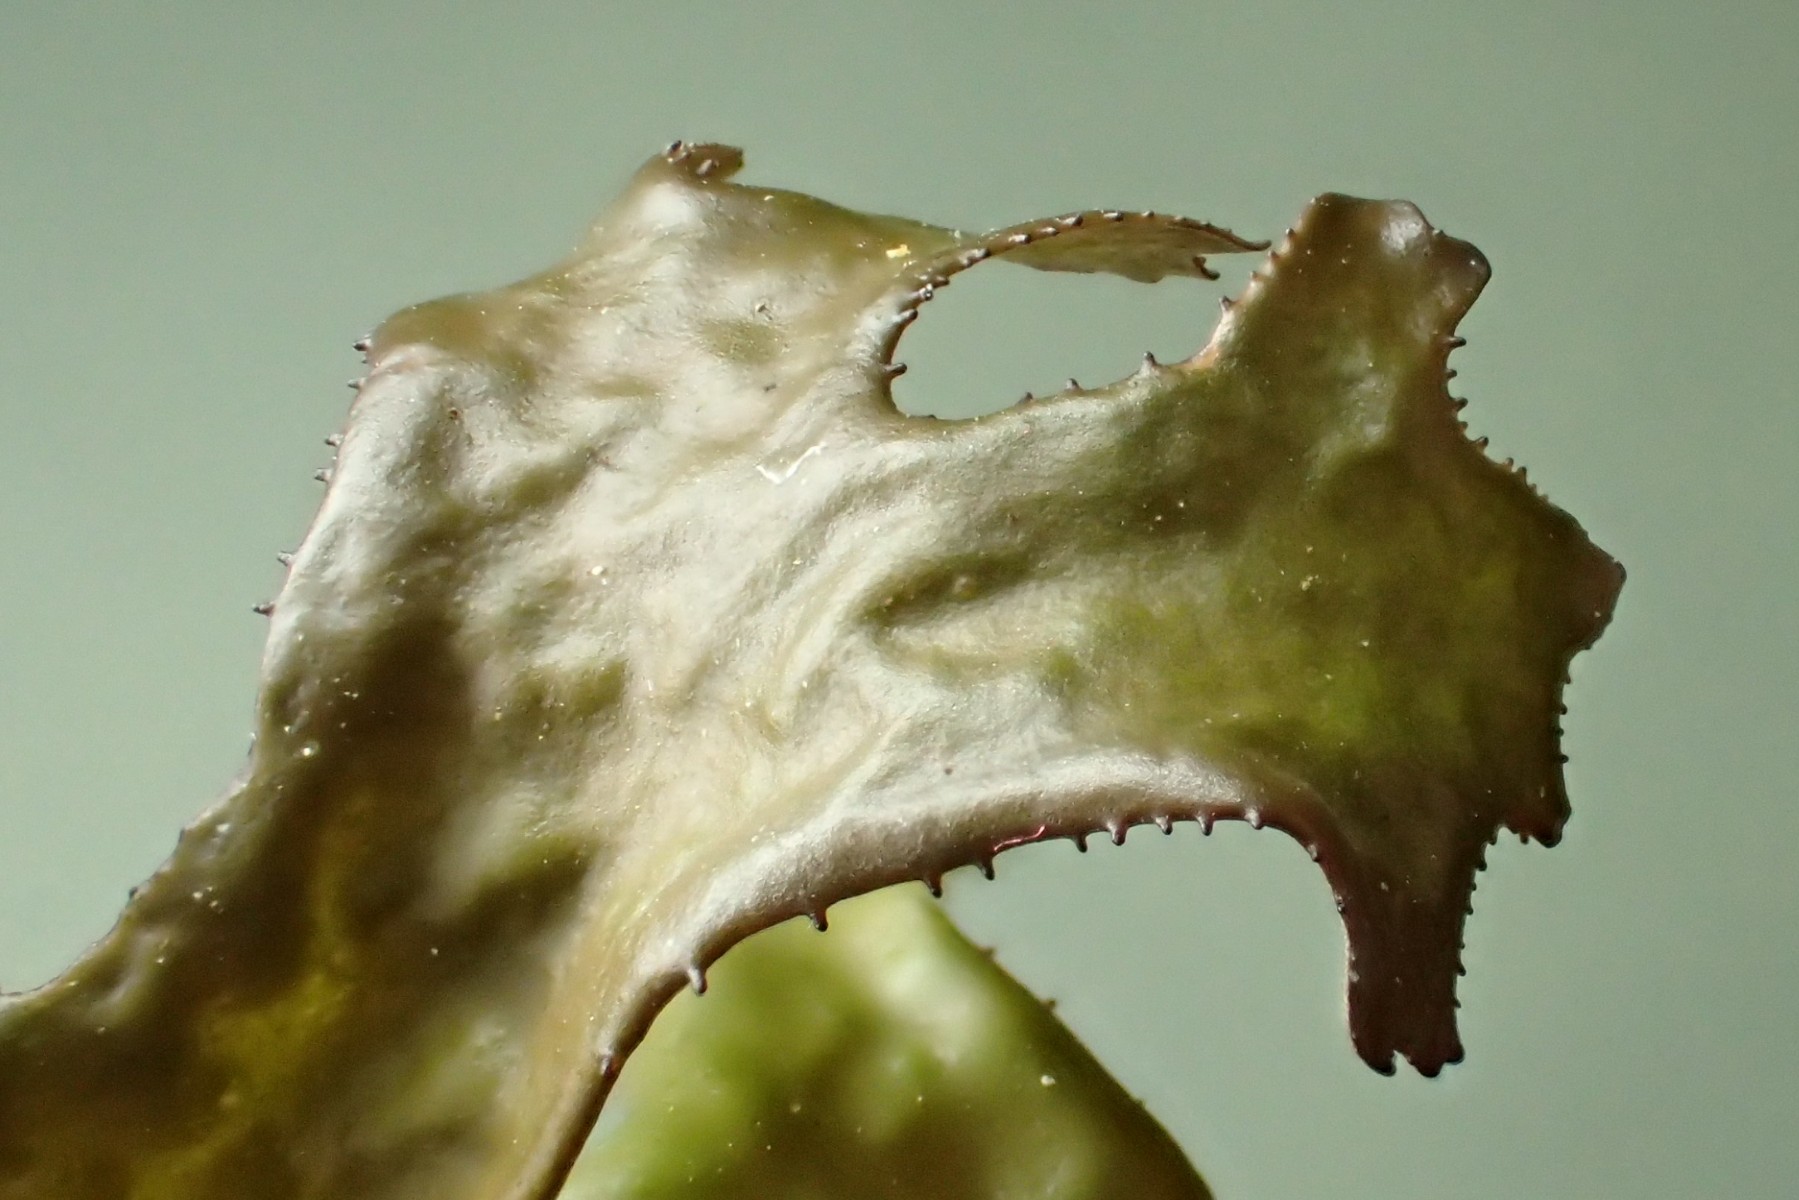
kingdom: Fungi
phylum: Ascomycota
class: Lecanoromycetes
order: Lecanorales
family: Parmeliaceae
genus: Cetraria
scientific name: Cetraria islandica
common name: islandsk kruslav
